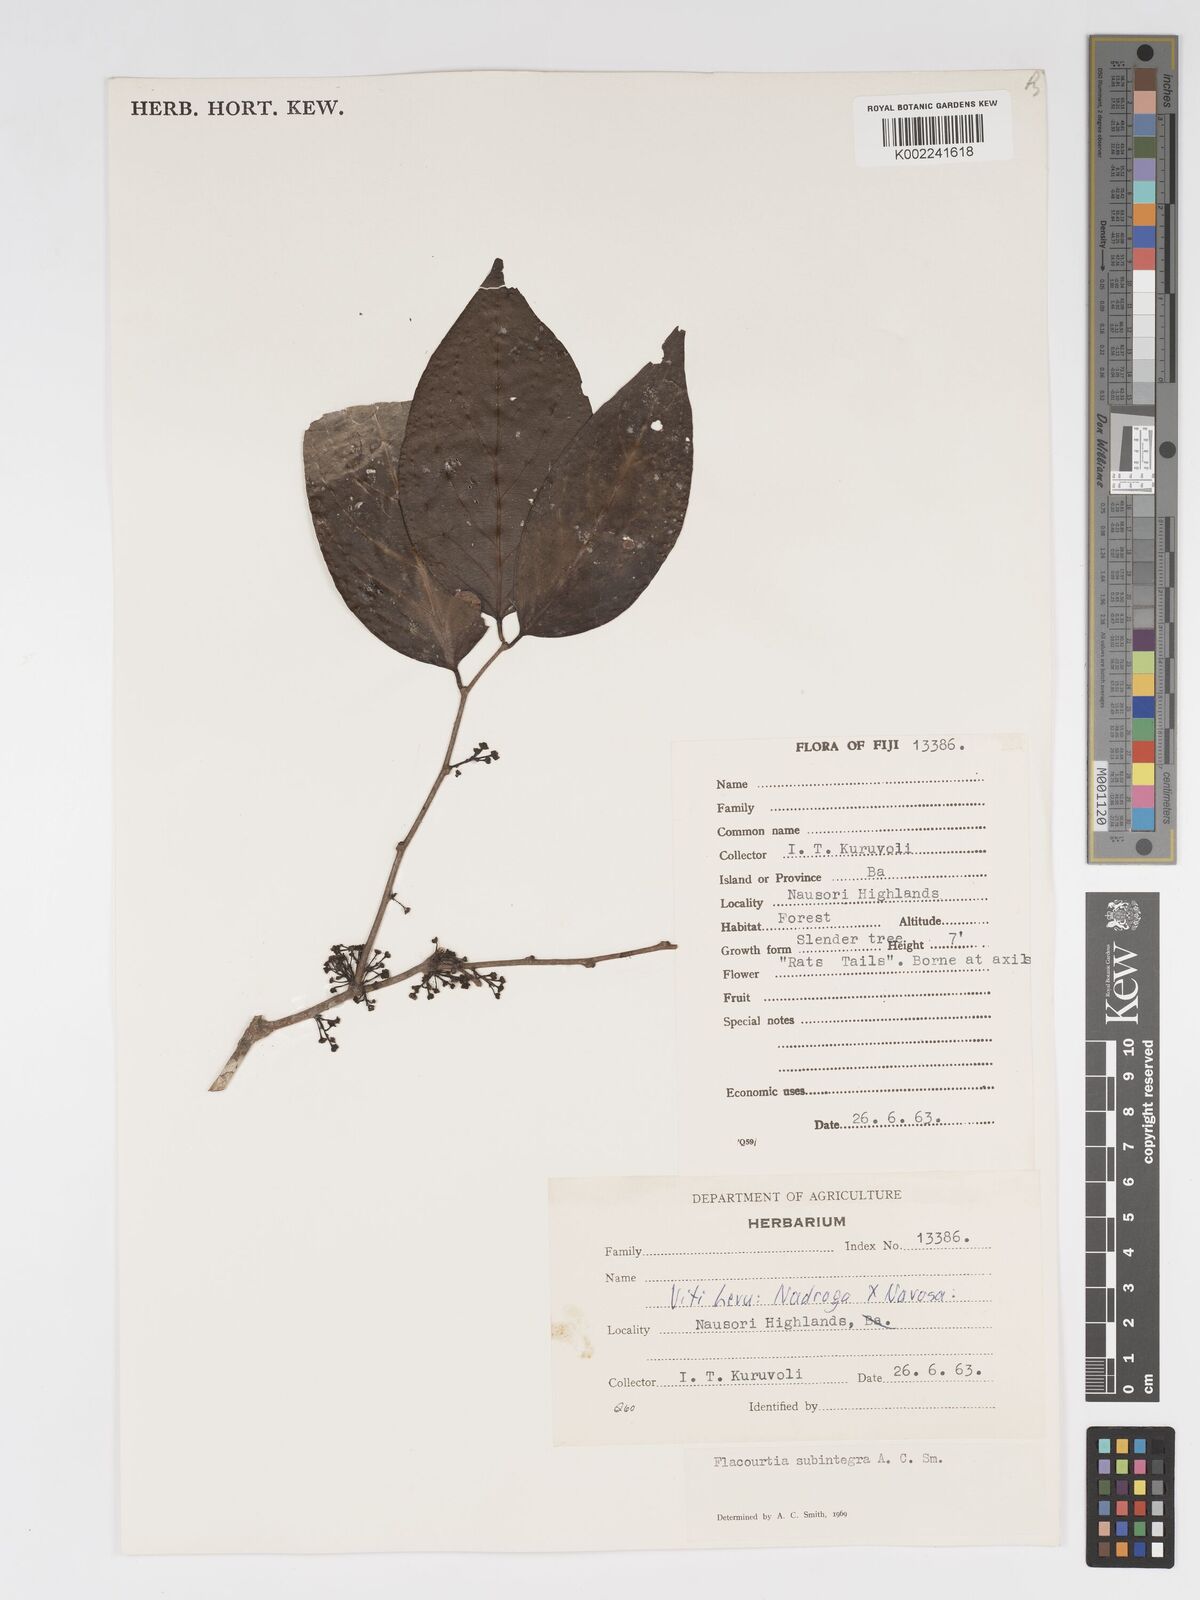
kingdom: Plantae
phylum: Tracheophyta
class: Magnoliopsida
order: Malpighiales
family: Salicaceae
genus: Flacourtia
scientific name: Flacourtia subintegra
